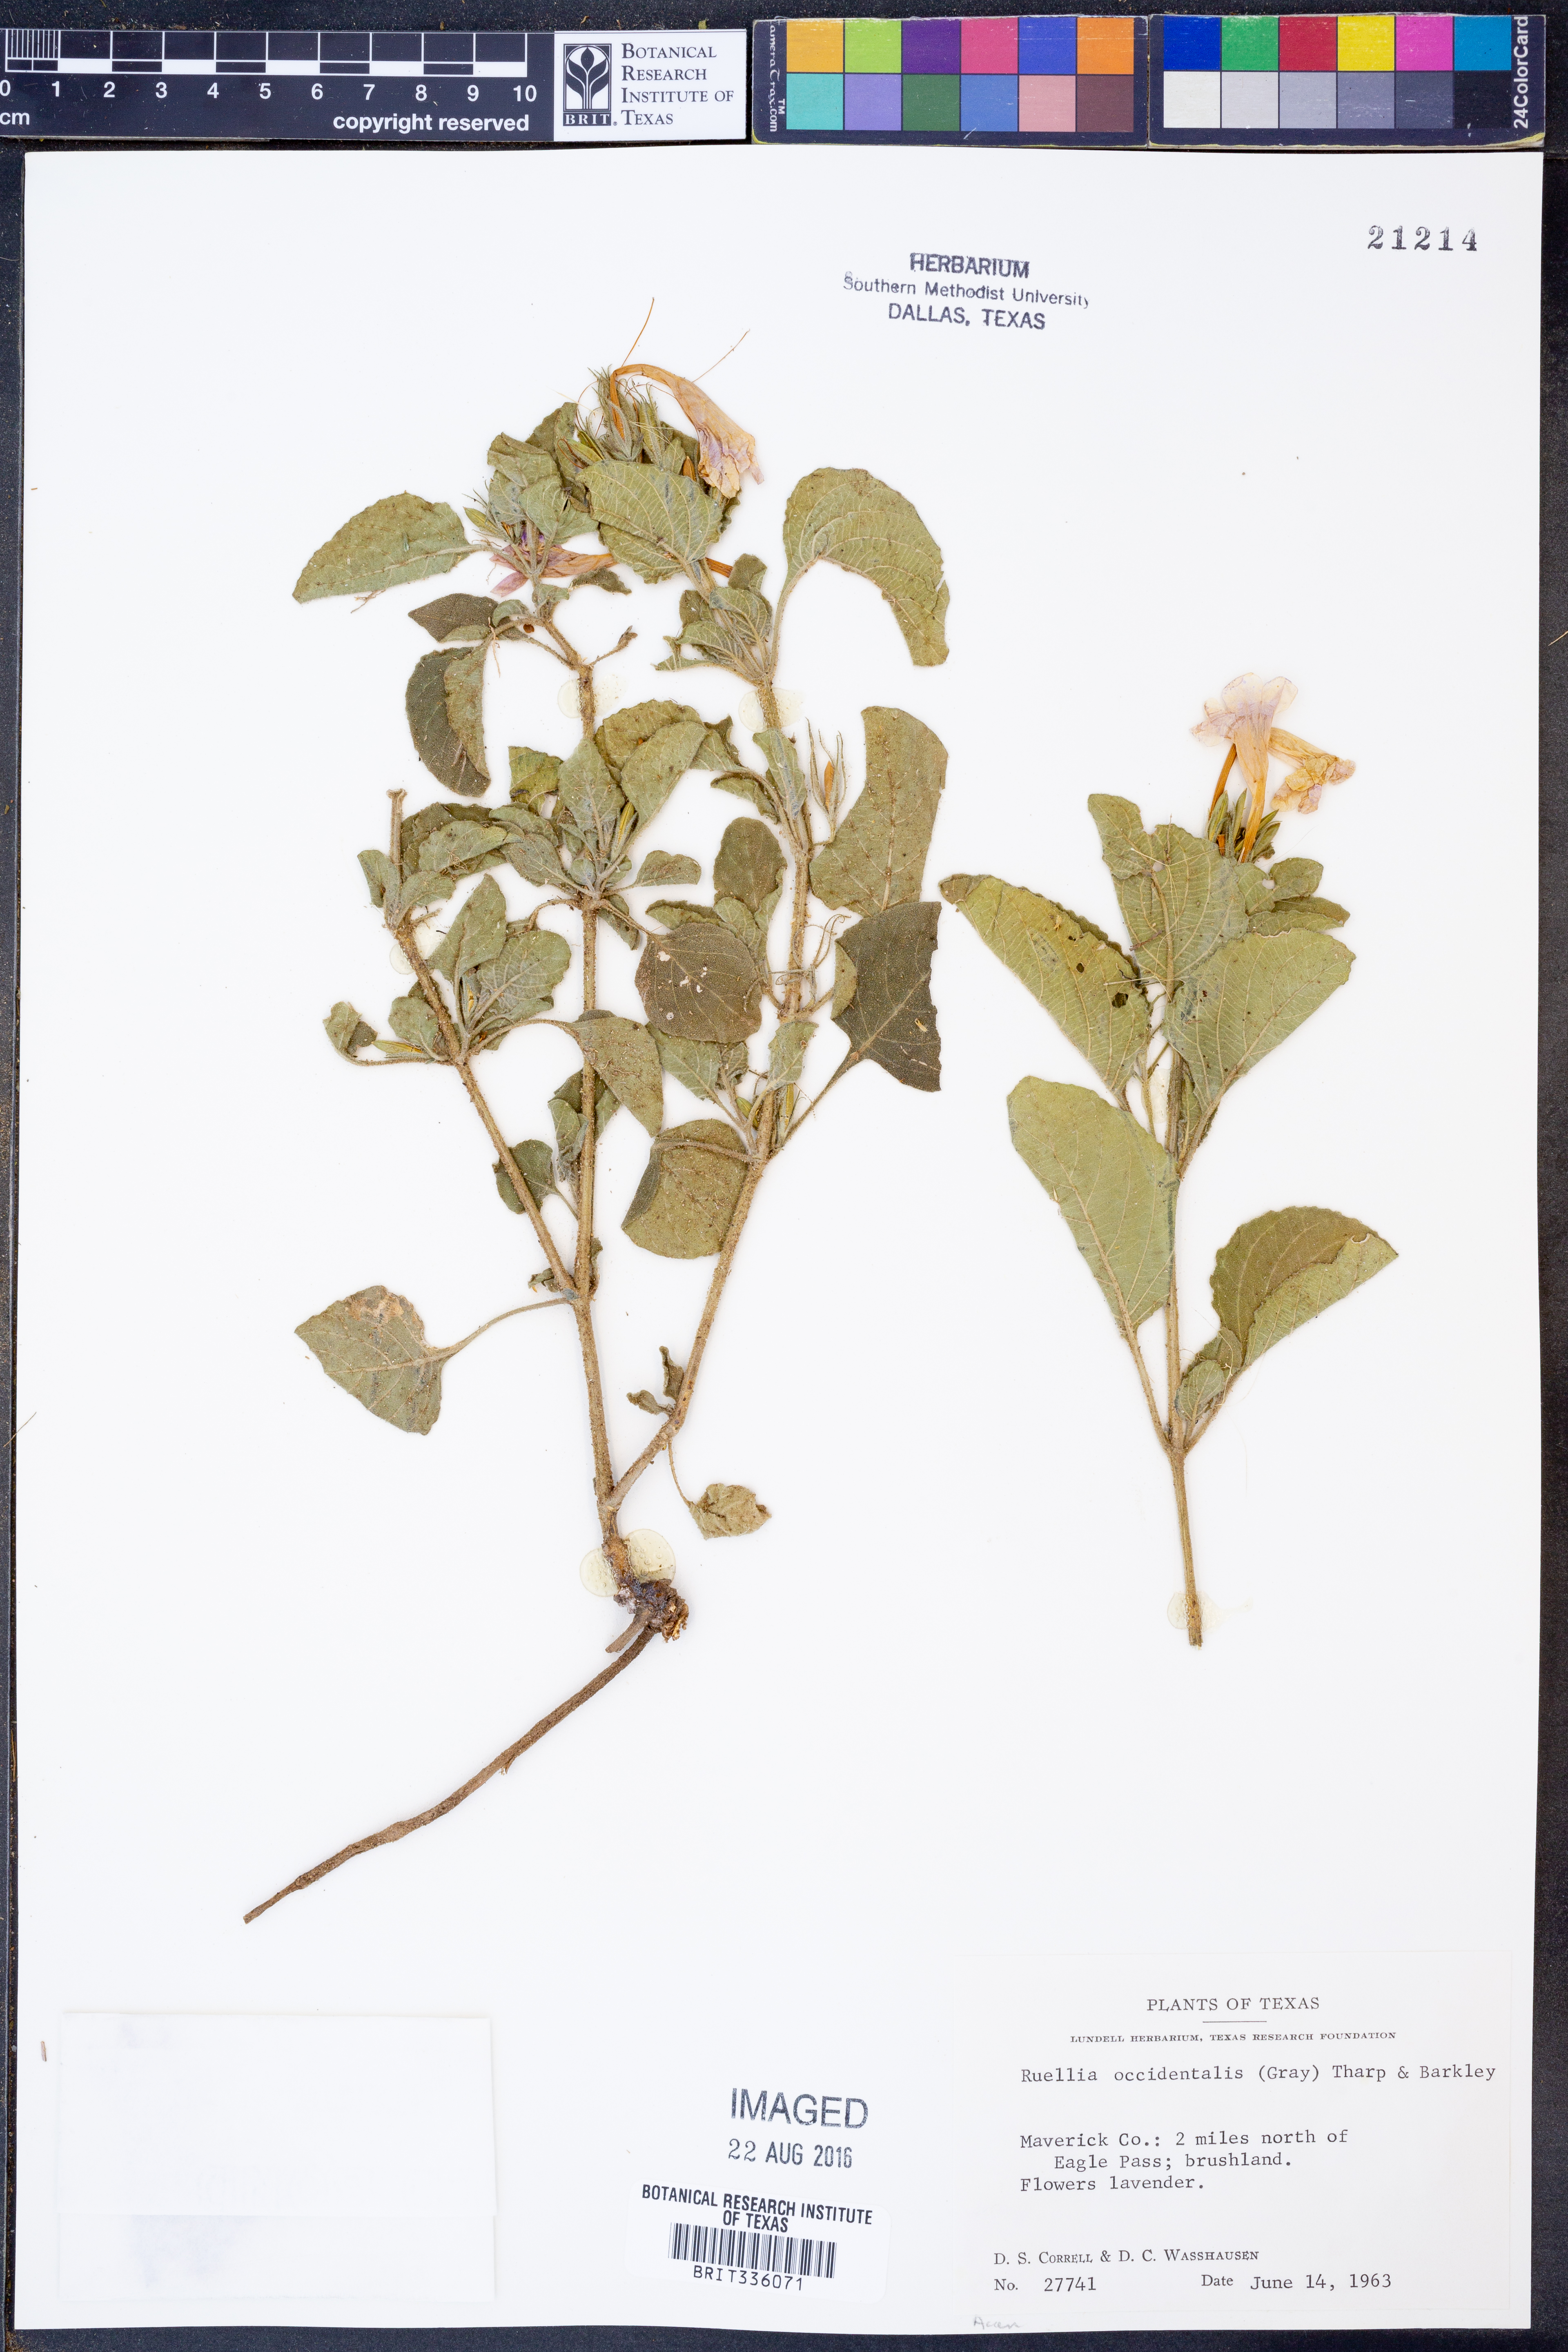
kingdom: Plantae
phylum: Tracheophyta
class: Magnoliopsida
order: Lamiales
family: Acanthaceae
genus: Ruellia
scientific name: Ruellia ciliatiflora
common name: Hairyflower wild petunia
